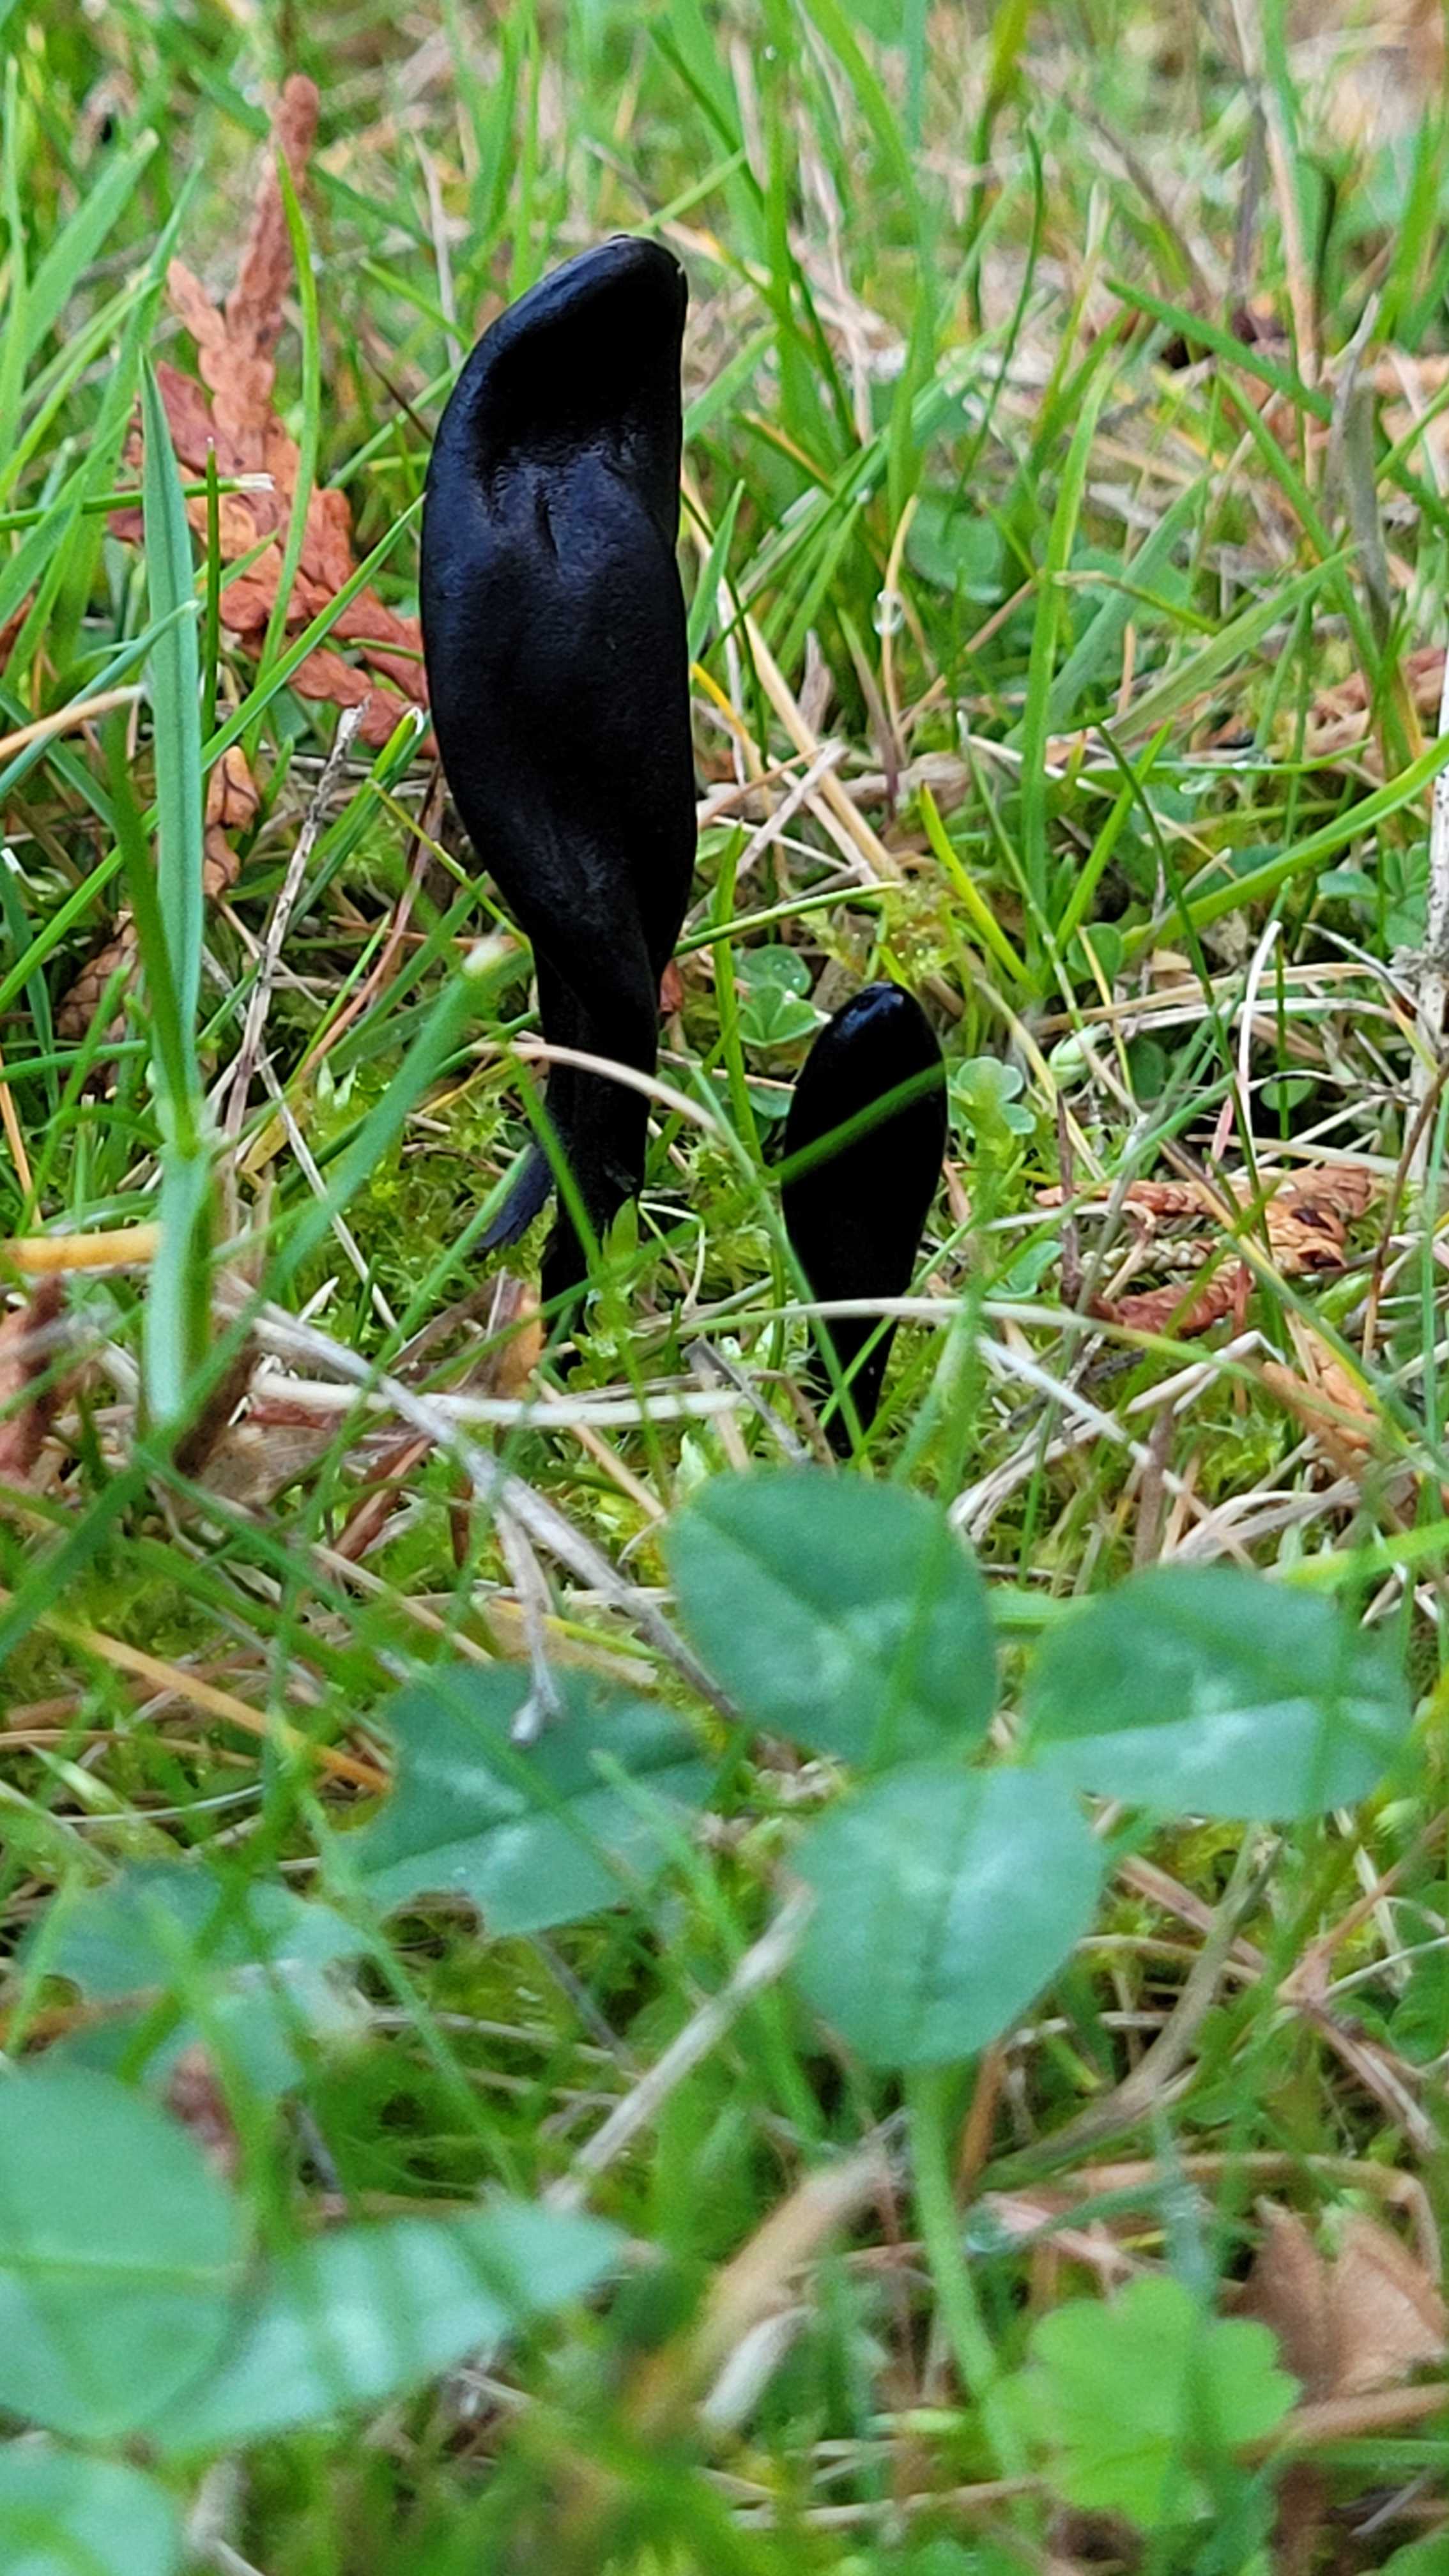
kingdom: Fungi
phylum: Ascomycota
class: Geoglossomycetes
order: Geoglossales
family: Geoglossaceae
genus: Geoglossum
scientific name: Geoglossum
